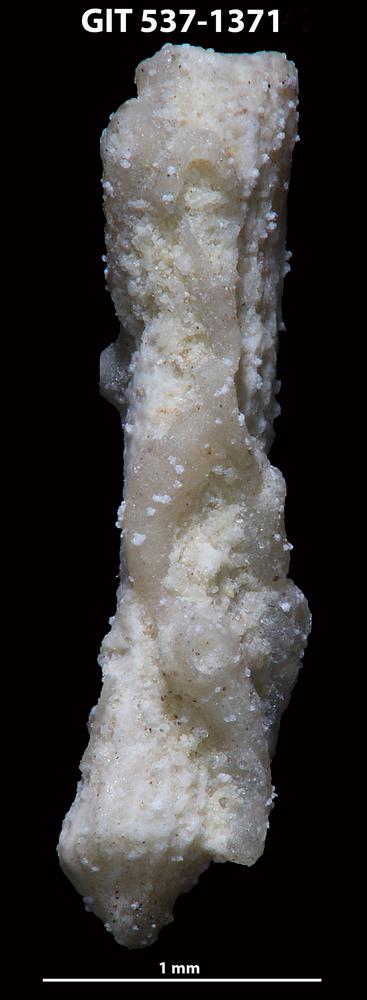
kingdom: Animalia
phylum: Bryozoa
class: Stenolaemata
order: Cyclostomatida
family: Corynotrypidae
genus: Corynotrypa
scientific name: Corynotrypa dissimilis
